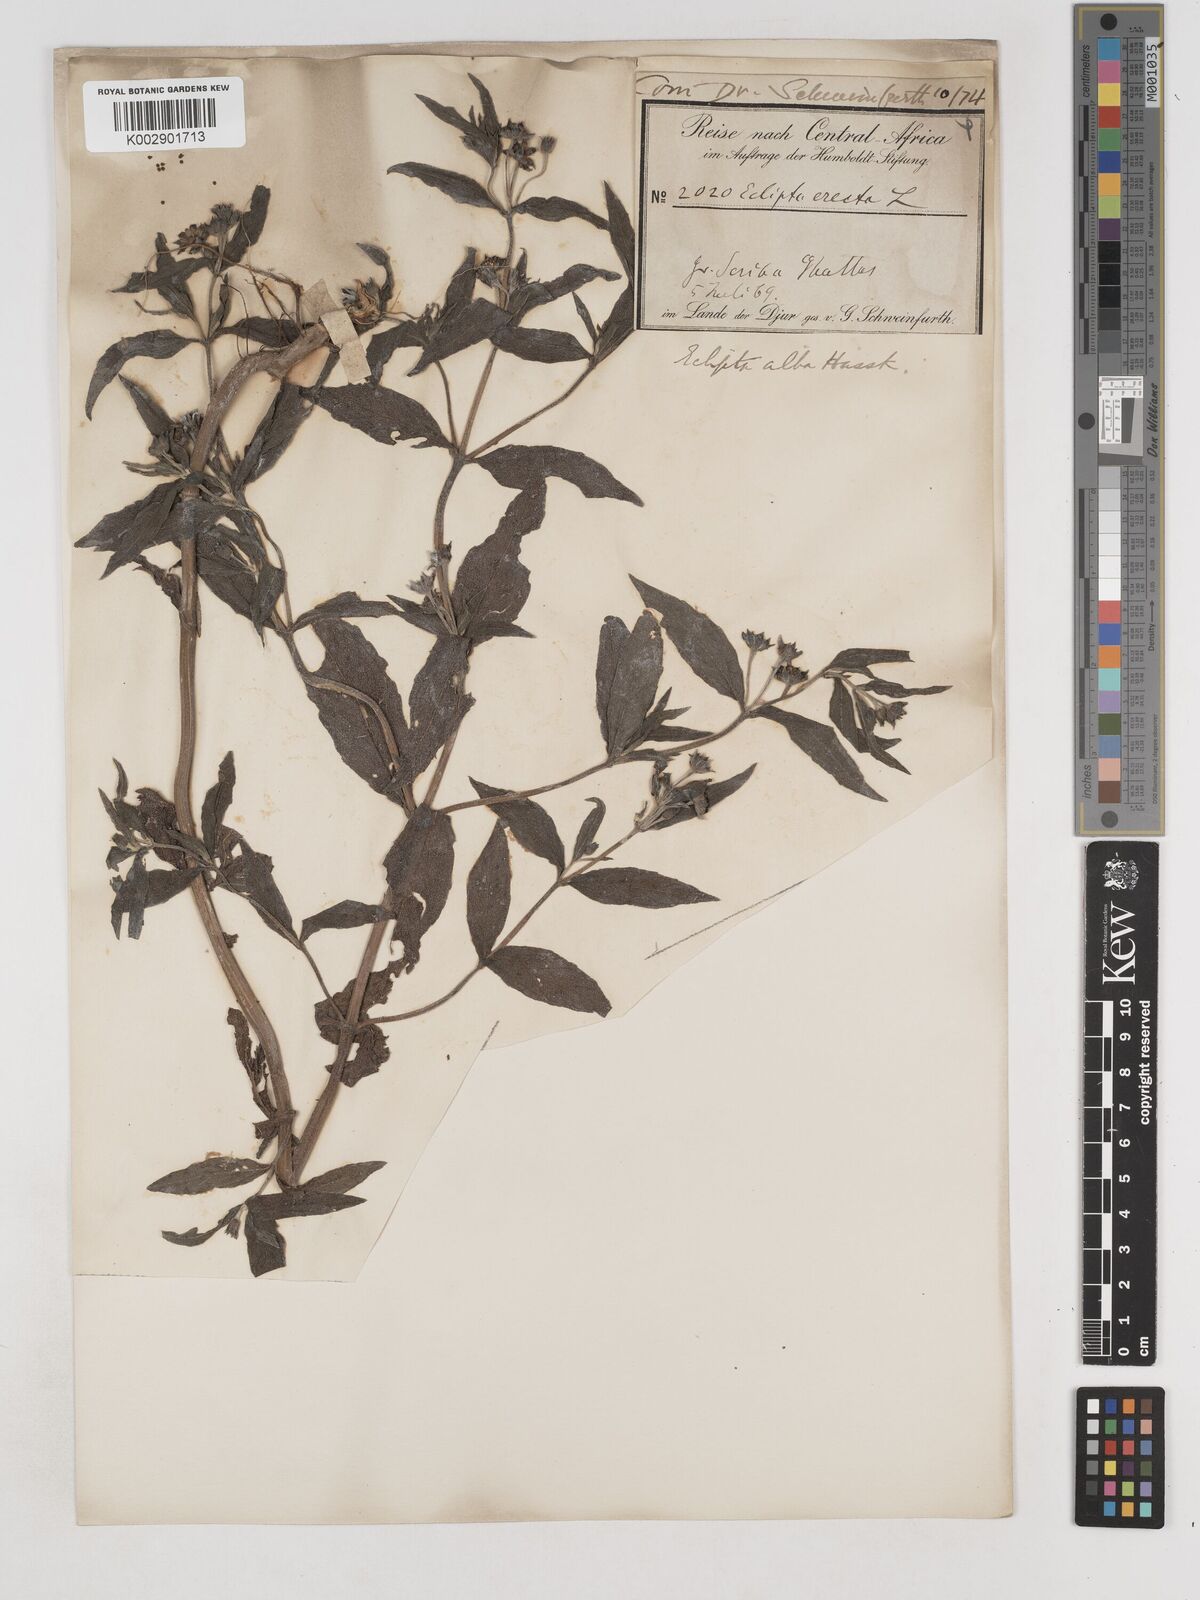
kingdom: Plantae
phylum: Tracheophyta
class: Magnoliopsida
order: Asterales
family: Asteraceae
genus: Eclipta
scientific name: Eclipta alba
